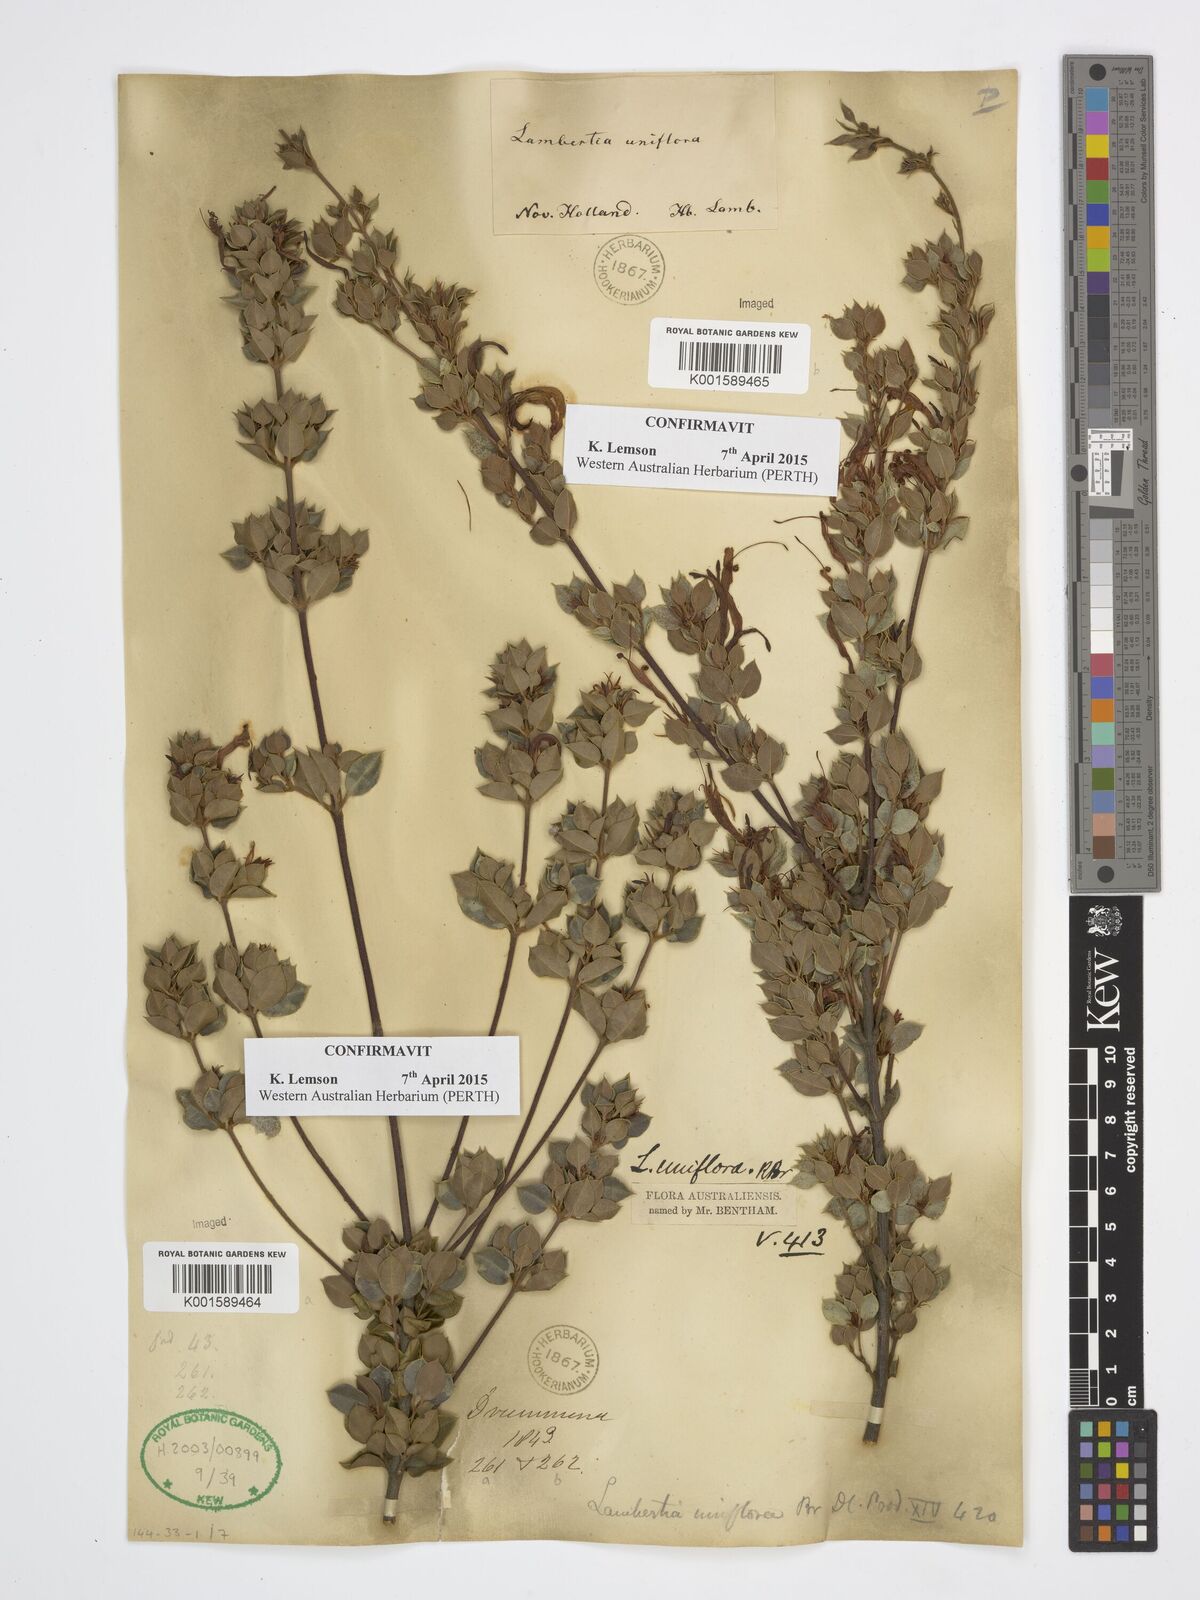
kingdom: Plantae
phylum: Tracheophyta
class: Magnoliopsida
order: Proteales
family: Proteaceae
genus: Lambertia
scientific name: Lambertia uniflora
